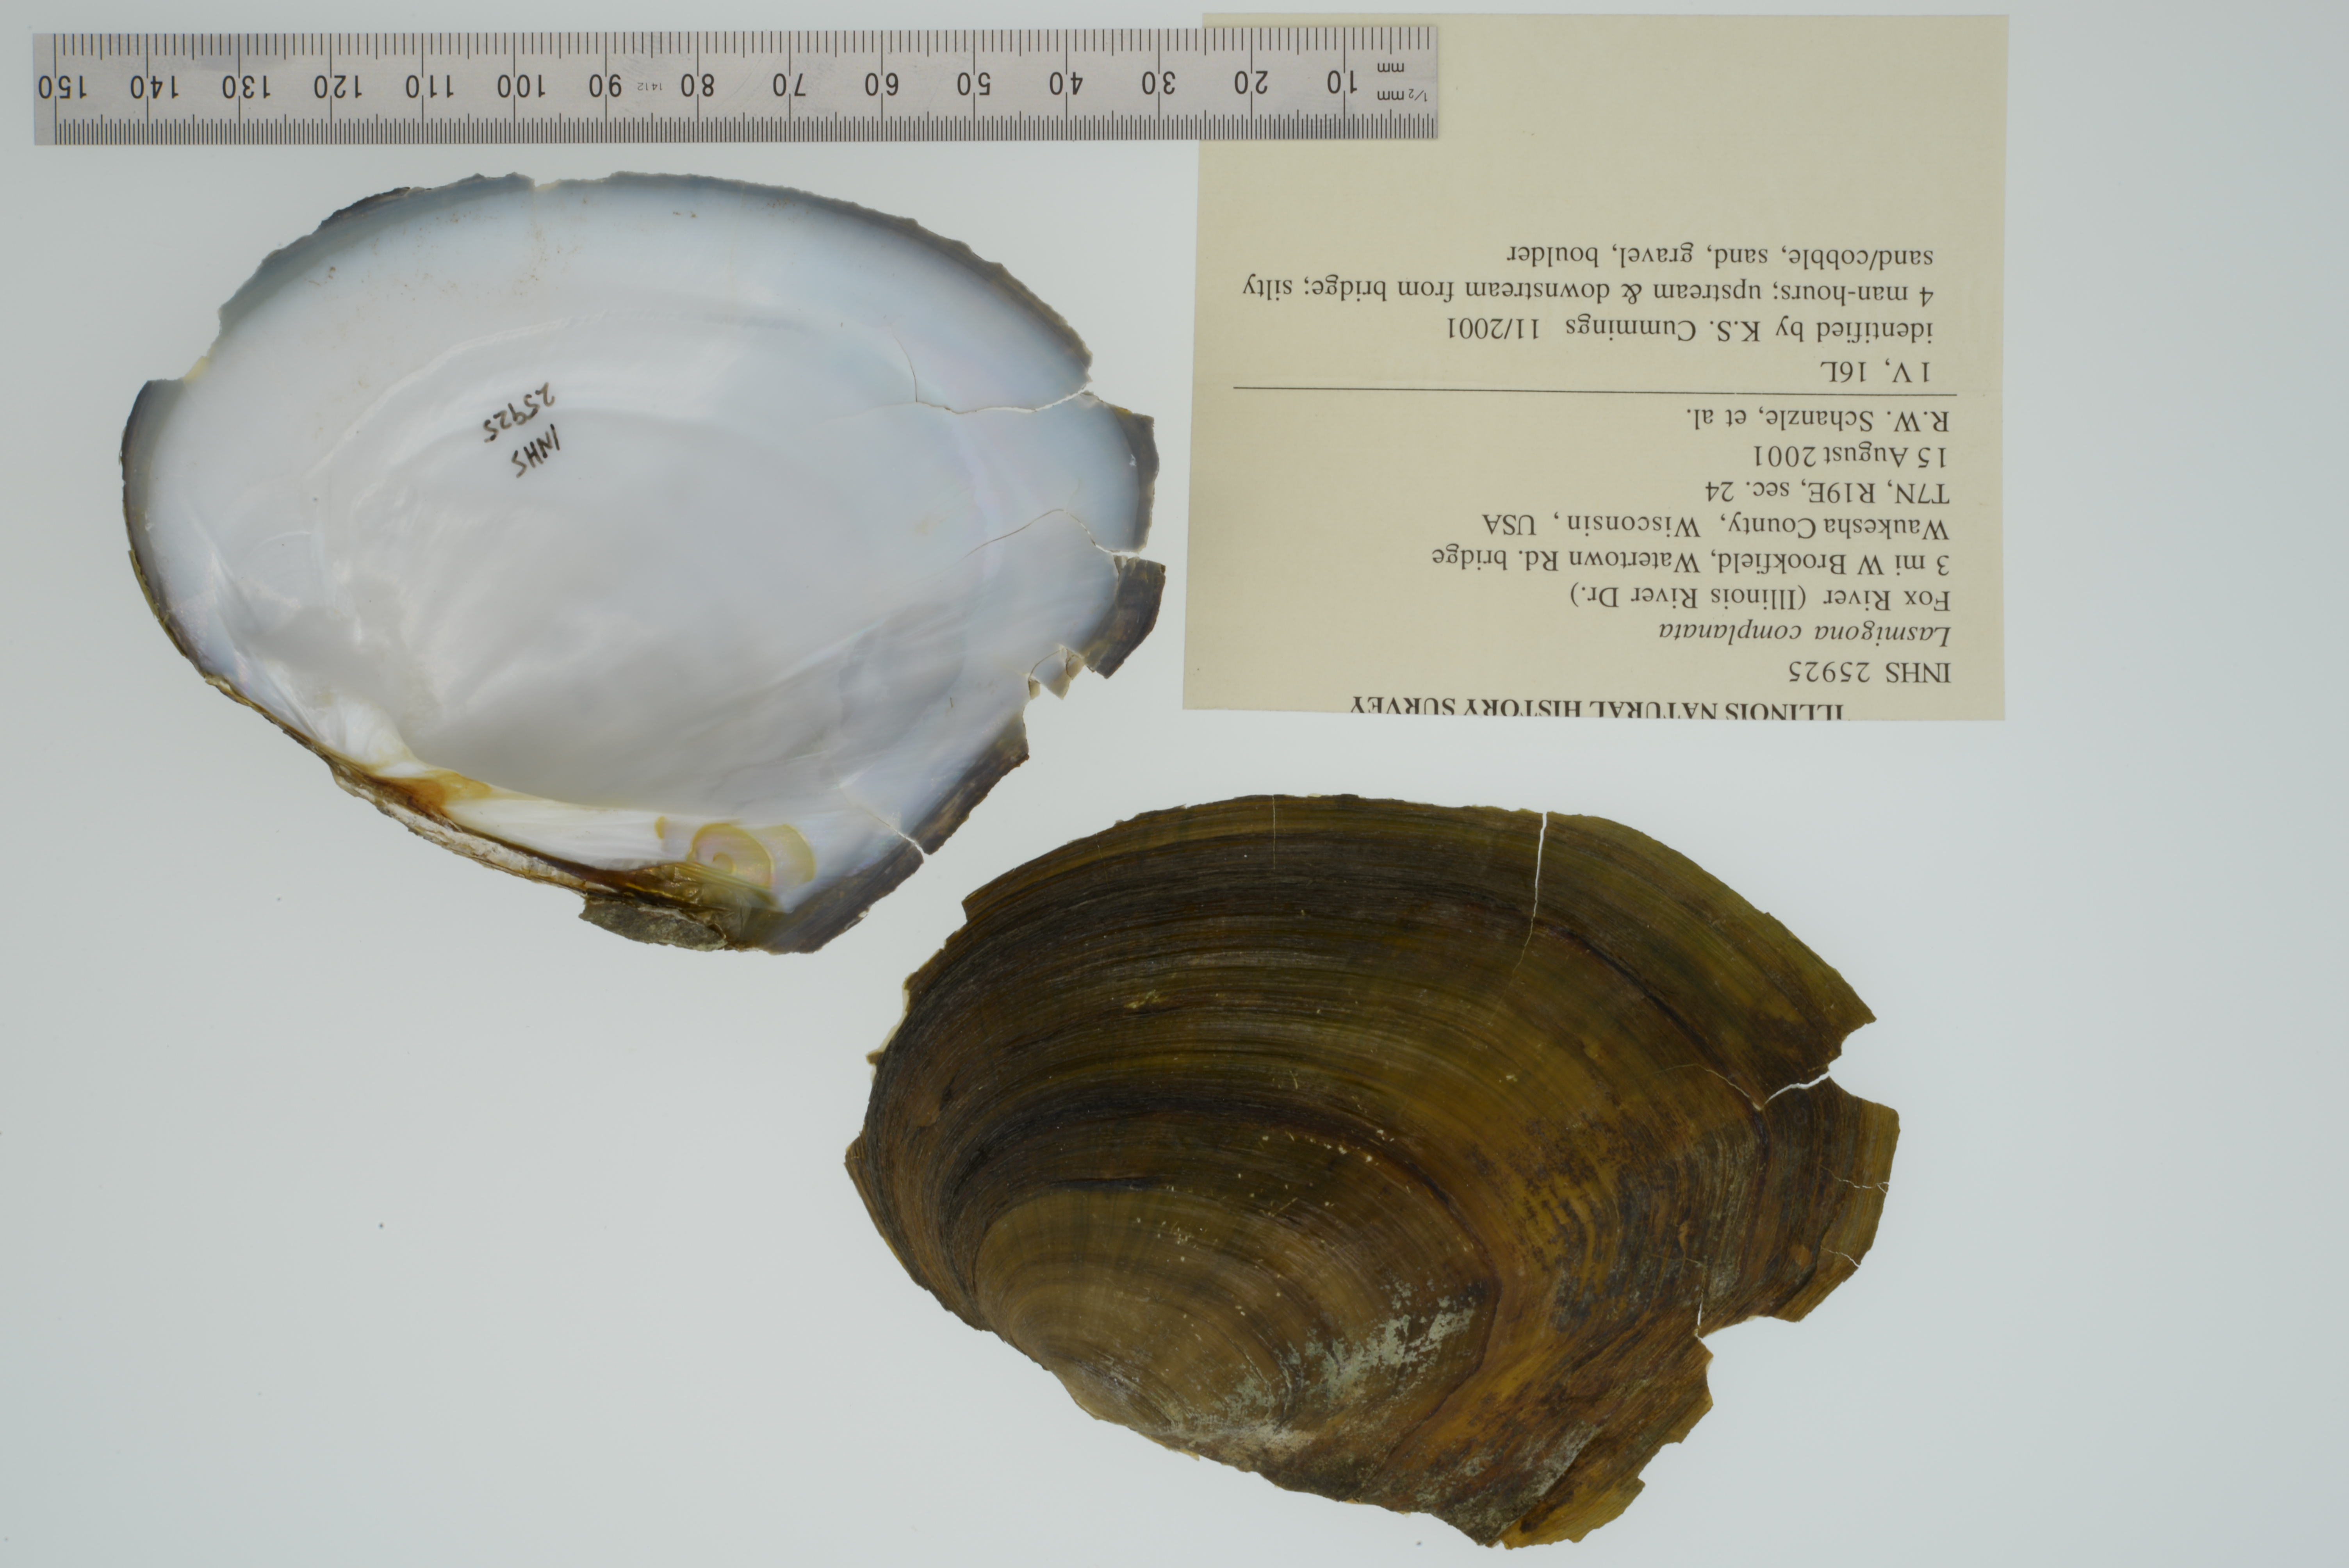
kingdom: Animalia
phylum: Mollusca
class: Bivalvia
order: Unionida
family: Unionidae
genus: Lasmigona
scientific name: Lasmigona complanata
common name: White heelsplitter
